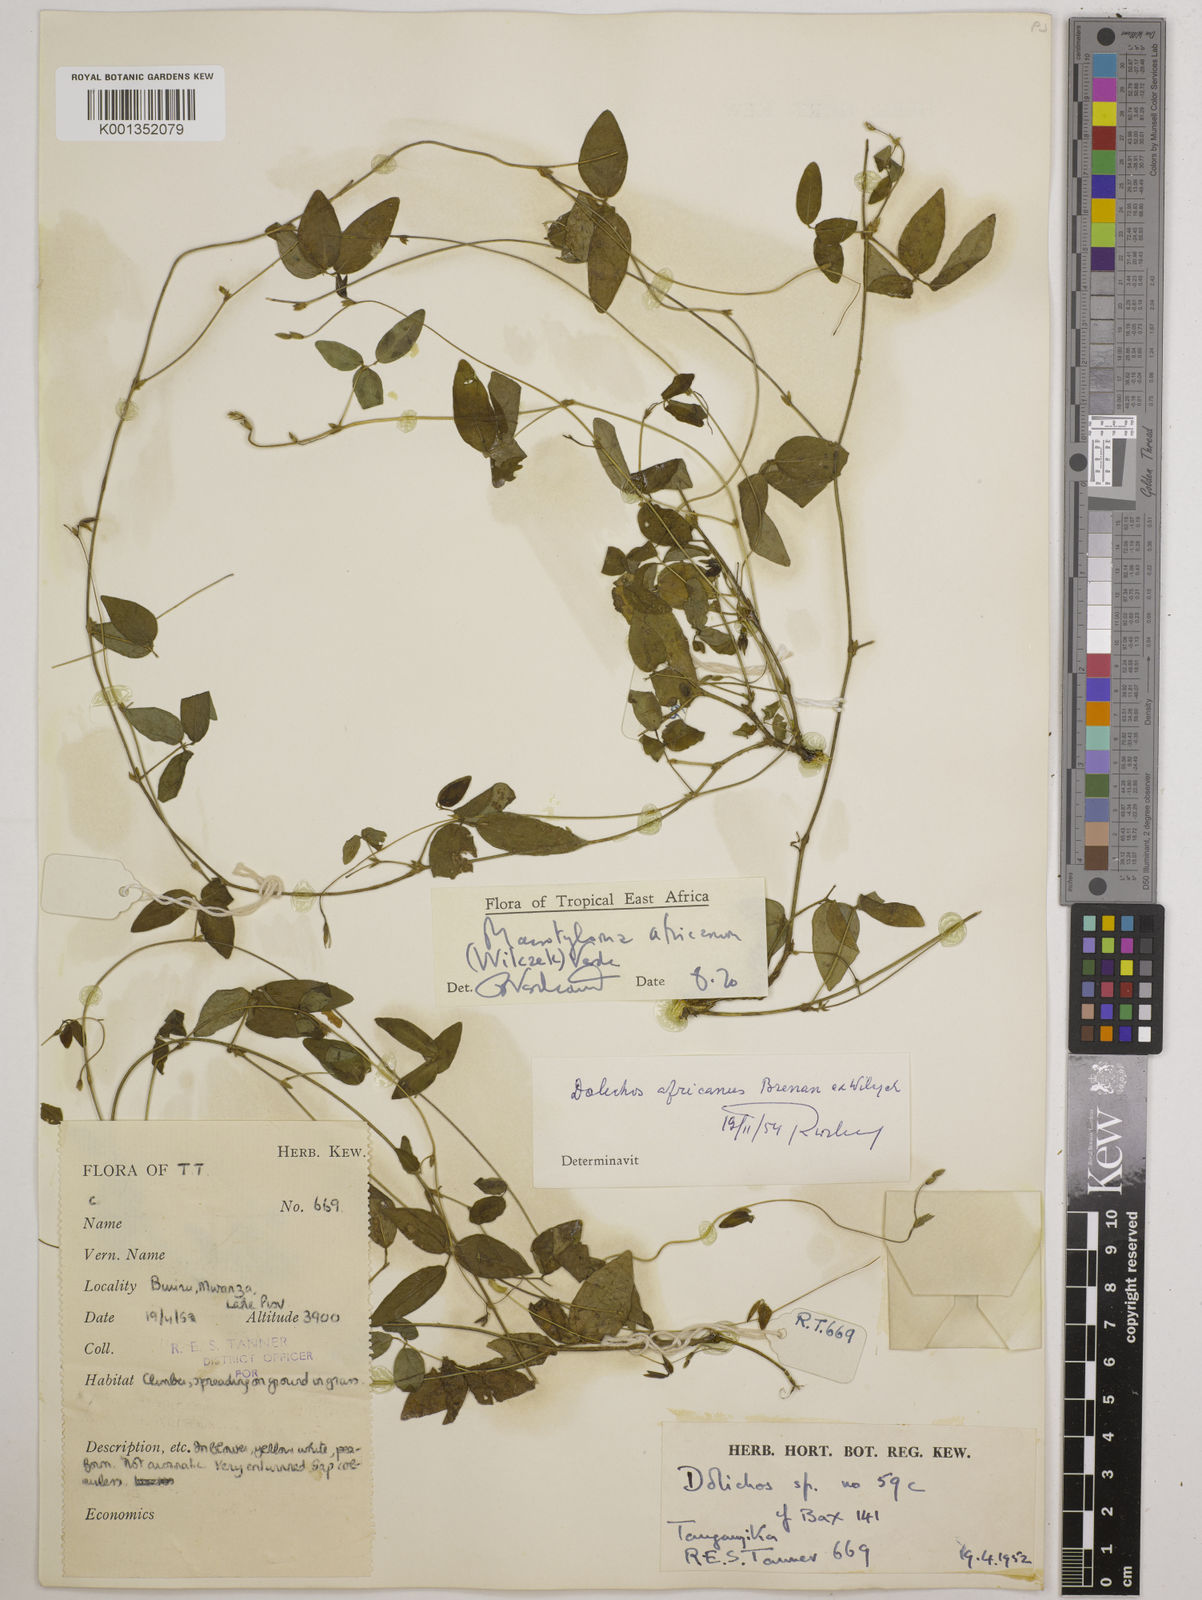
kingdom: Plantae
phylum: Tracheophyta
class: Magnoliopsida
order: Fabales
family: Fabaceae
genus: Macrotyloma
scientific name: Macrotyloma africanum
